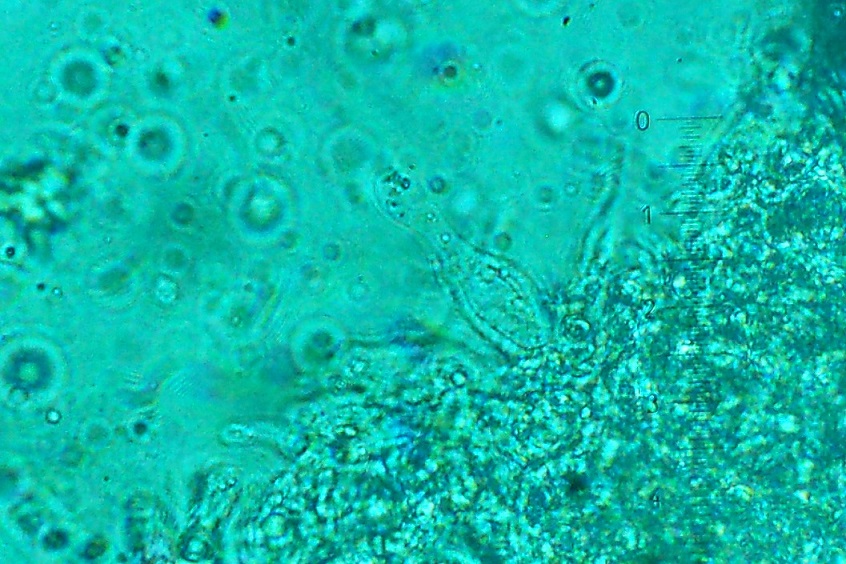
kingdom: Fungi
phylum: Basidiomycota
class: Agaricomycetes
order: Agaricales
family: Mycenaceae
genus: Mycena
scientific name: Mycena galericulata
